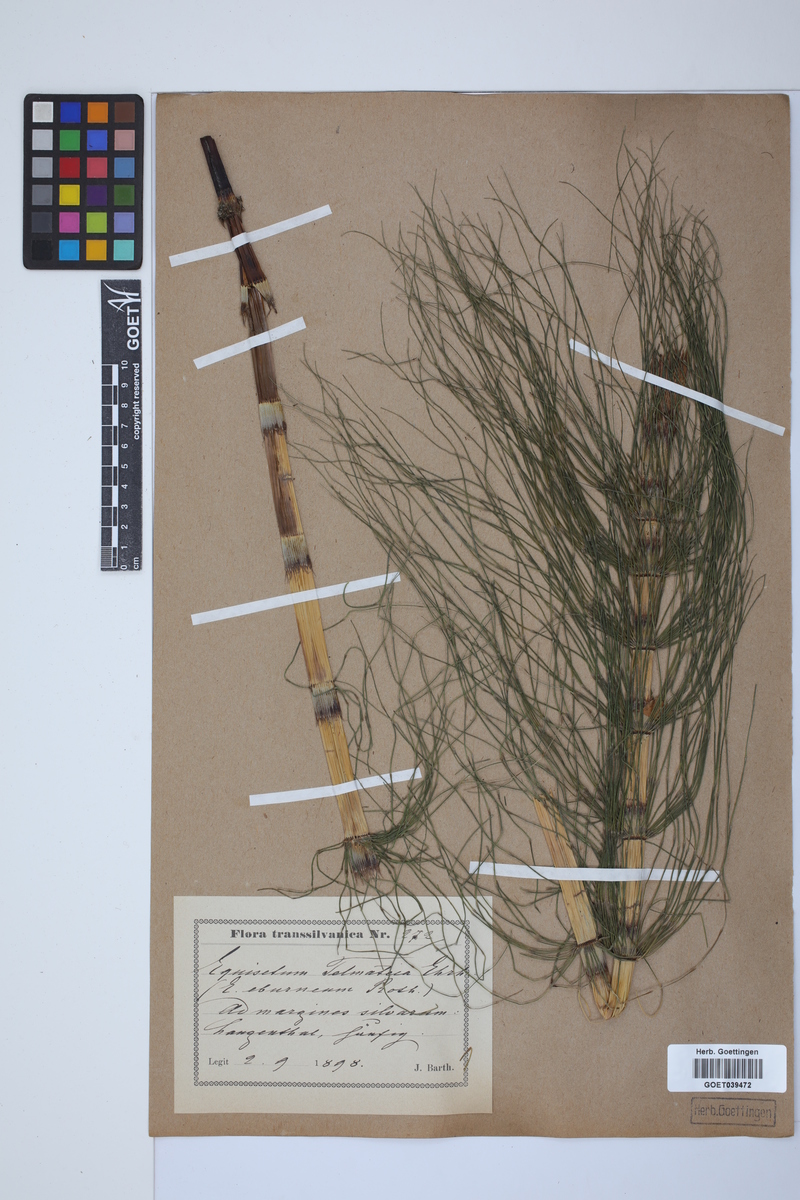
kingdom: Plantae
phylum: Tracheophyta
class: Polypodiopsida
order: Equisetales
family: Equisetaceae
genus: Equisetum
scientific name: Equisetum telmateia
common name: Great horsetail
